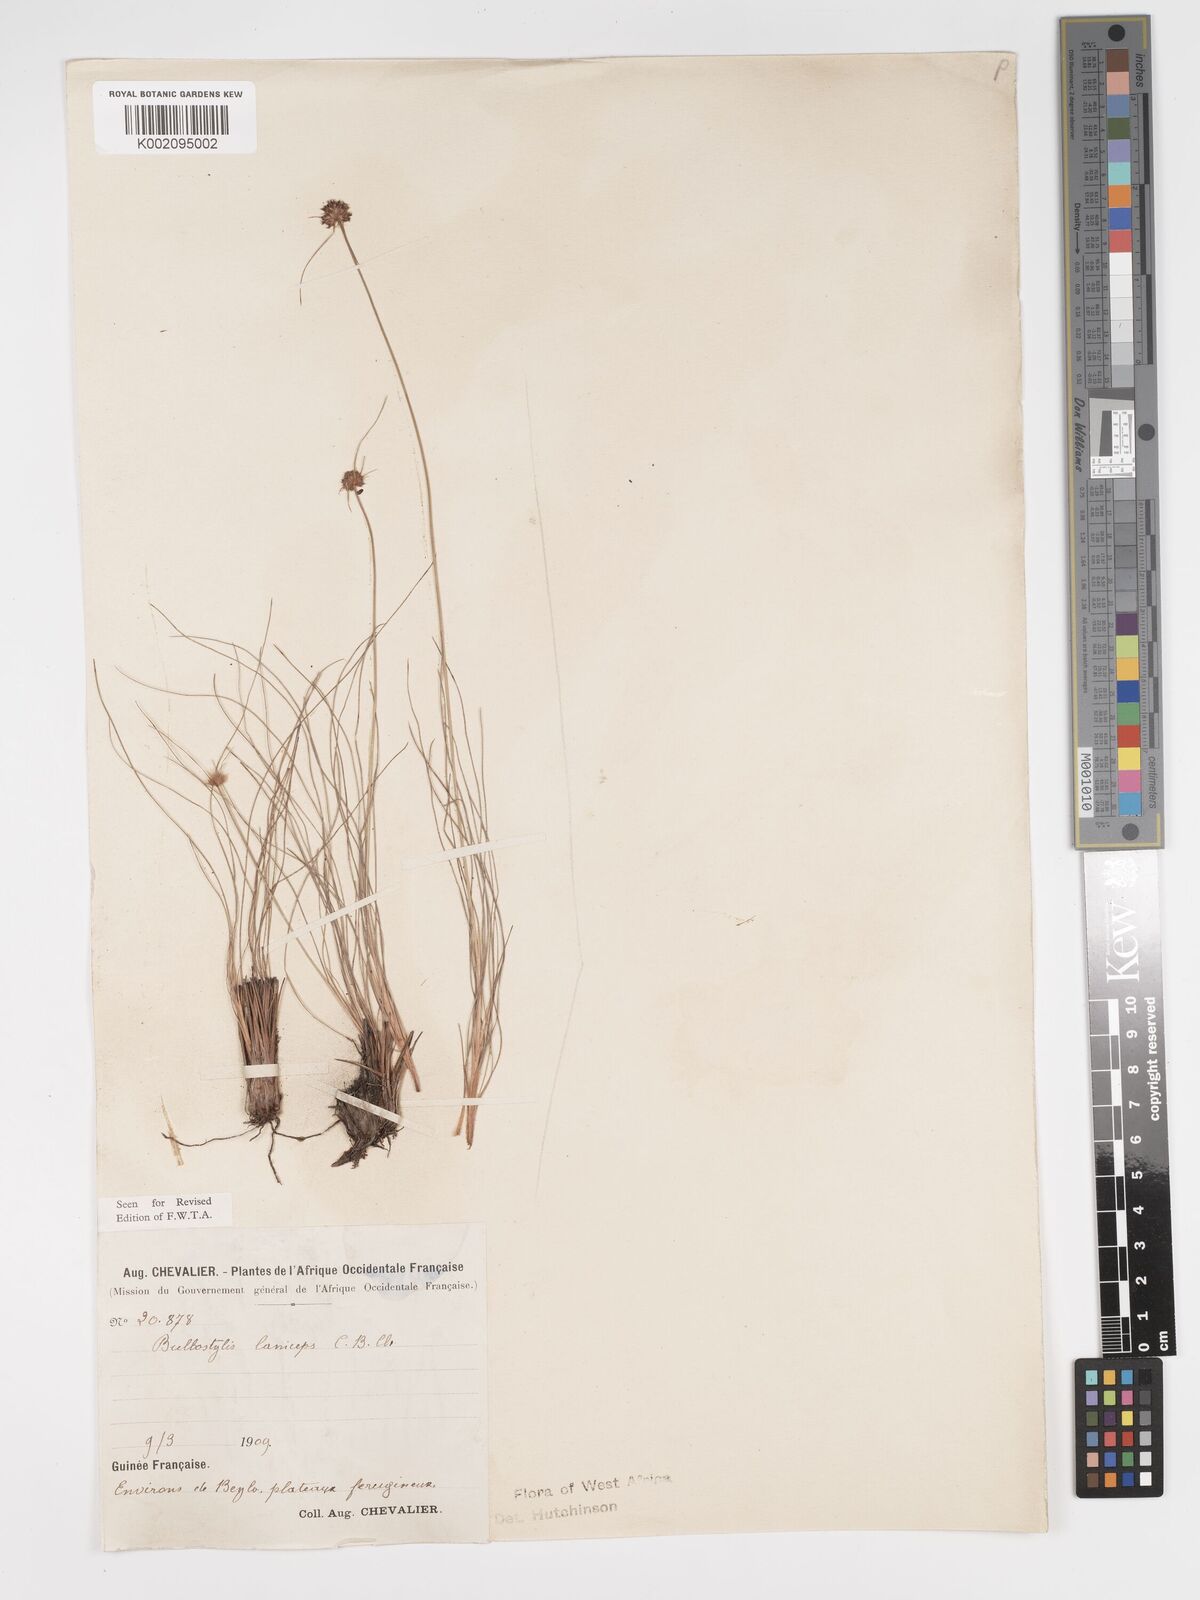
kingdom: Plantae
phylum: Tracheophyta
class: Liliopsida
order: Poales
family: Cyperaceae
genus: Bulbostylis
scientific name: Bulbostylis laniceps
